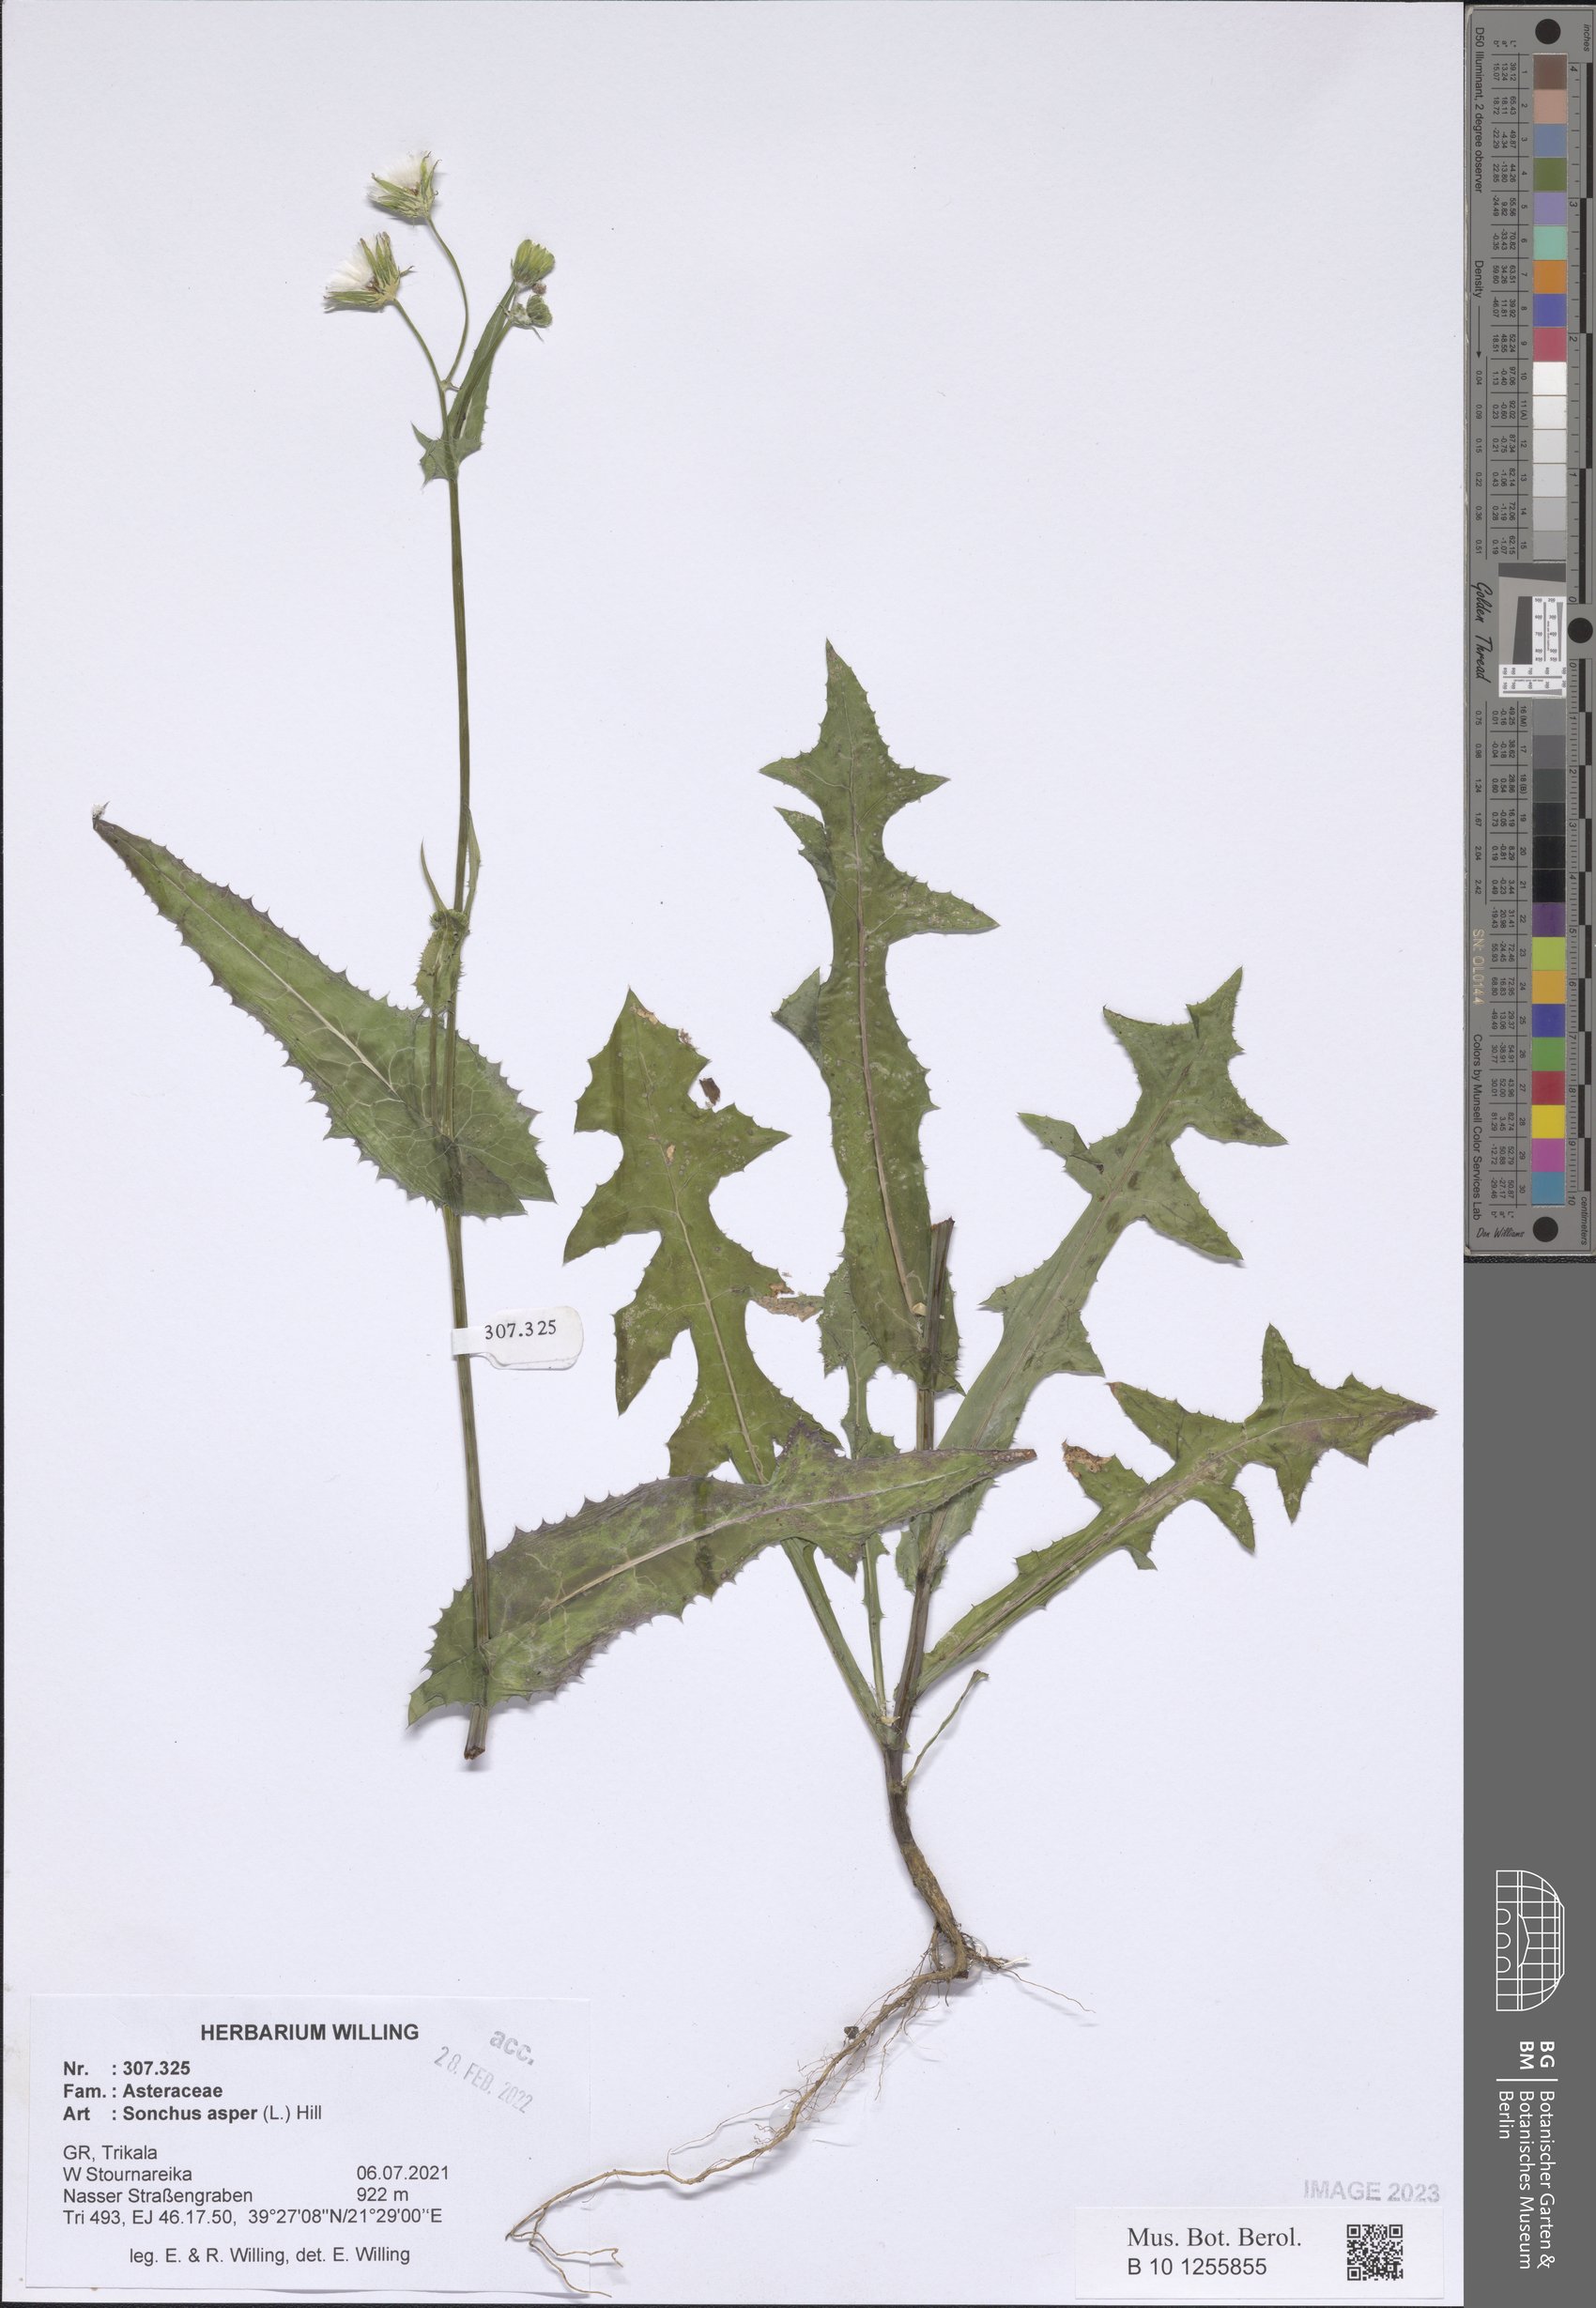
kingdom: Plantae
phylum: Tracheophyta
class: Magnoliopsida
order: Asterales
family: Asteraceae
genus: Sonchus
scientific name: Sonchus asper
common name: Prickly sow-thistle
